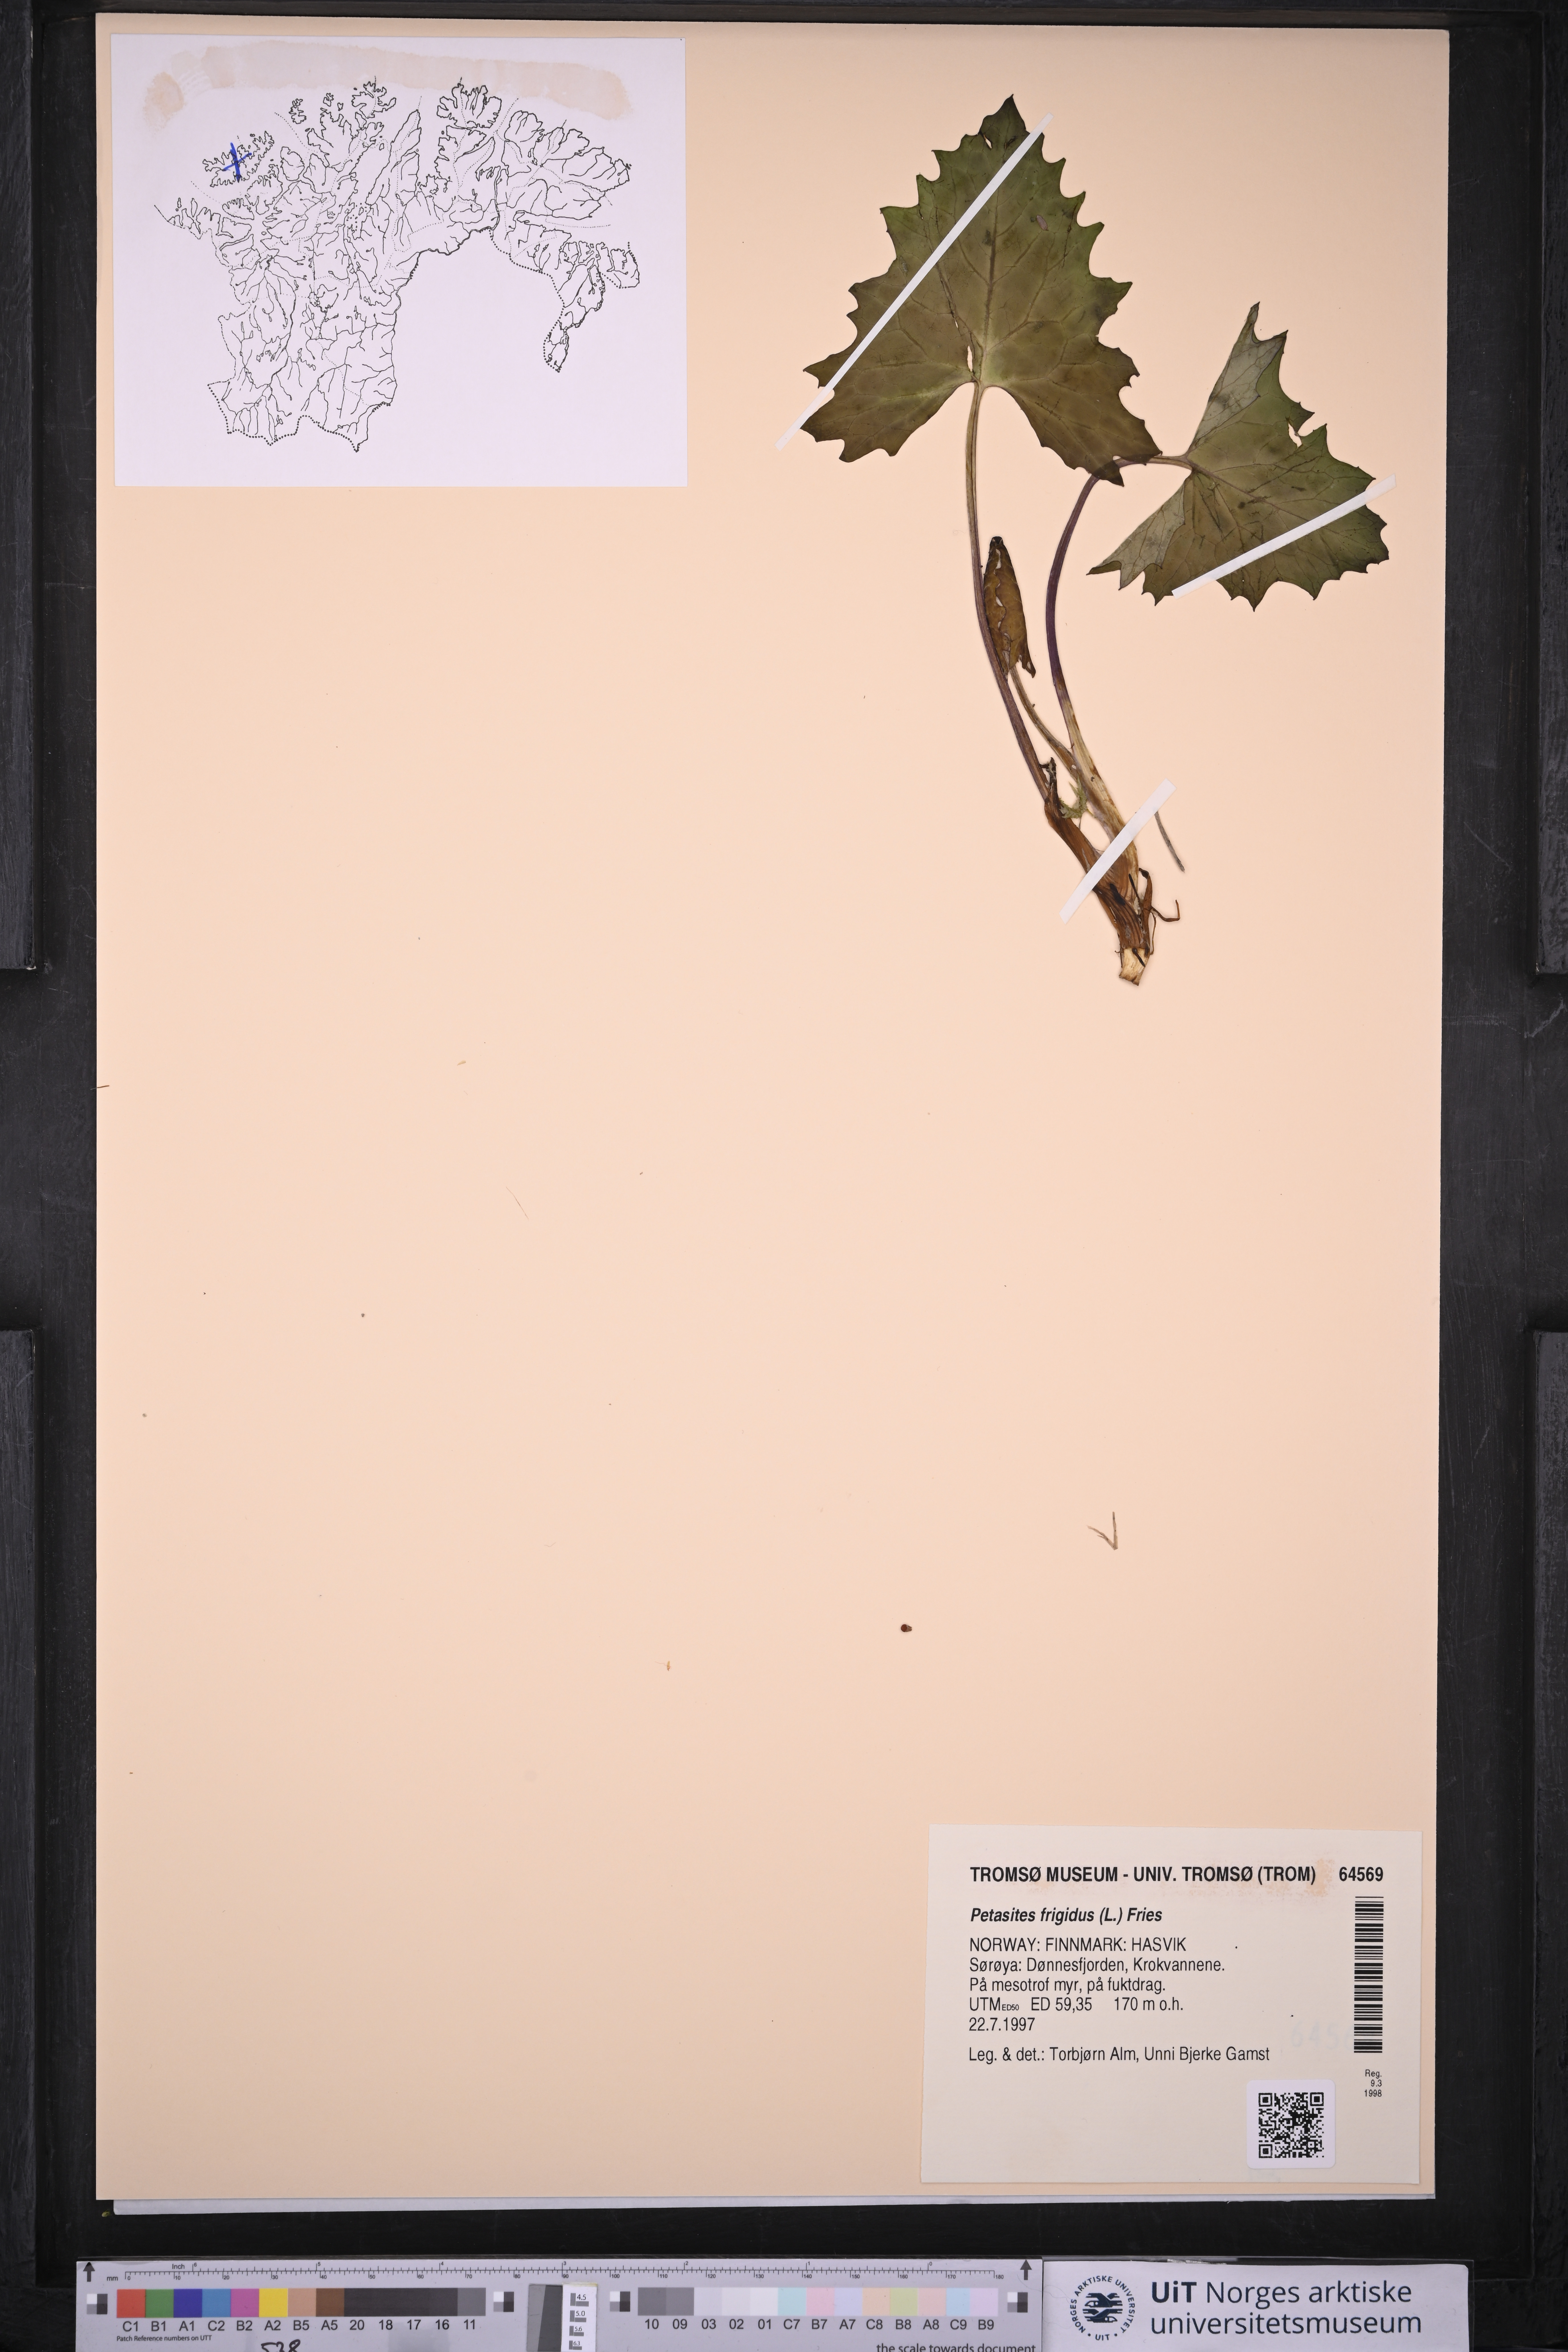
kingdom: Plantae
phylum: Tracheophyta
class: Magnoliopsida
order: Asterales
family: Asteraceae
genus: Petasites
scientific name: Petasites frigidus
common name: Arctic butterbur
